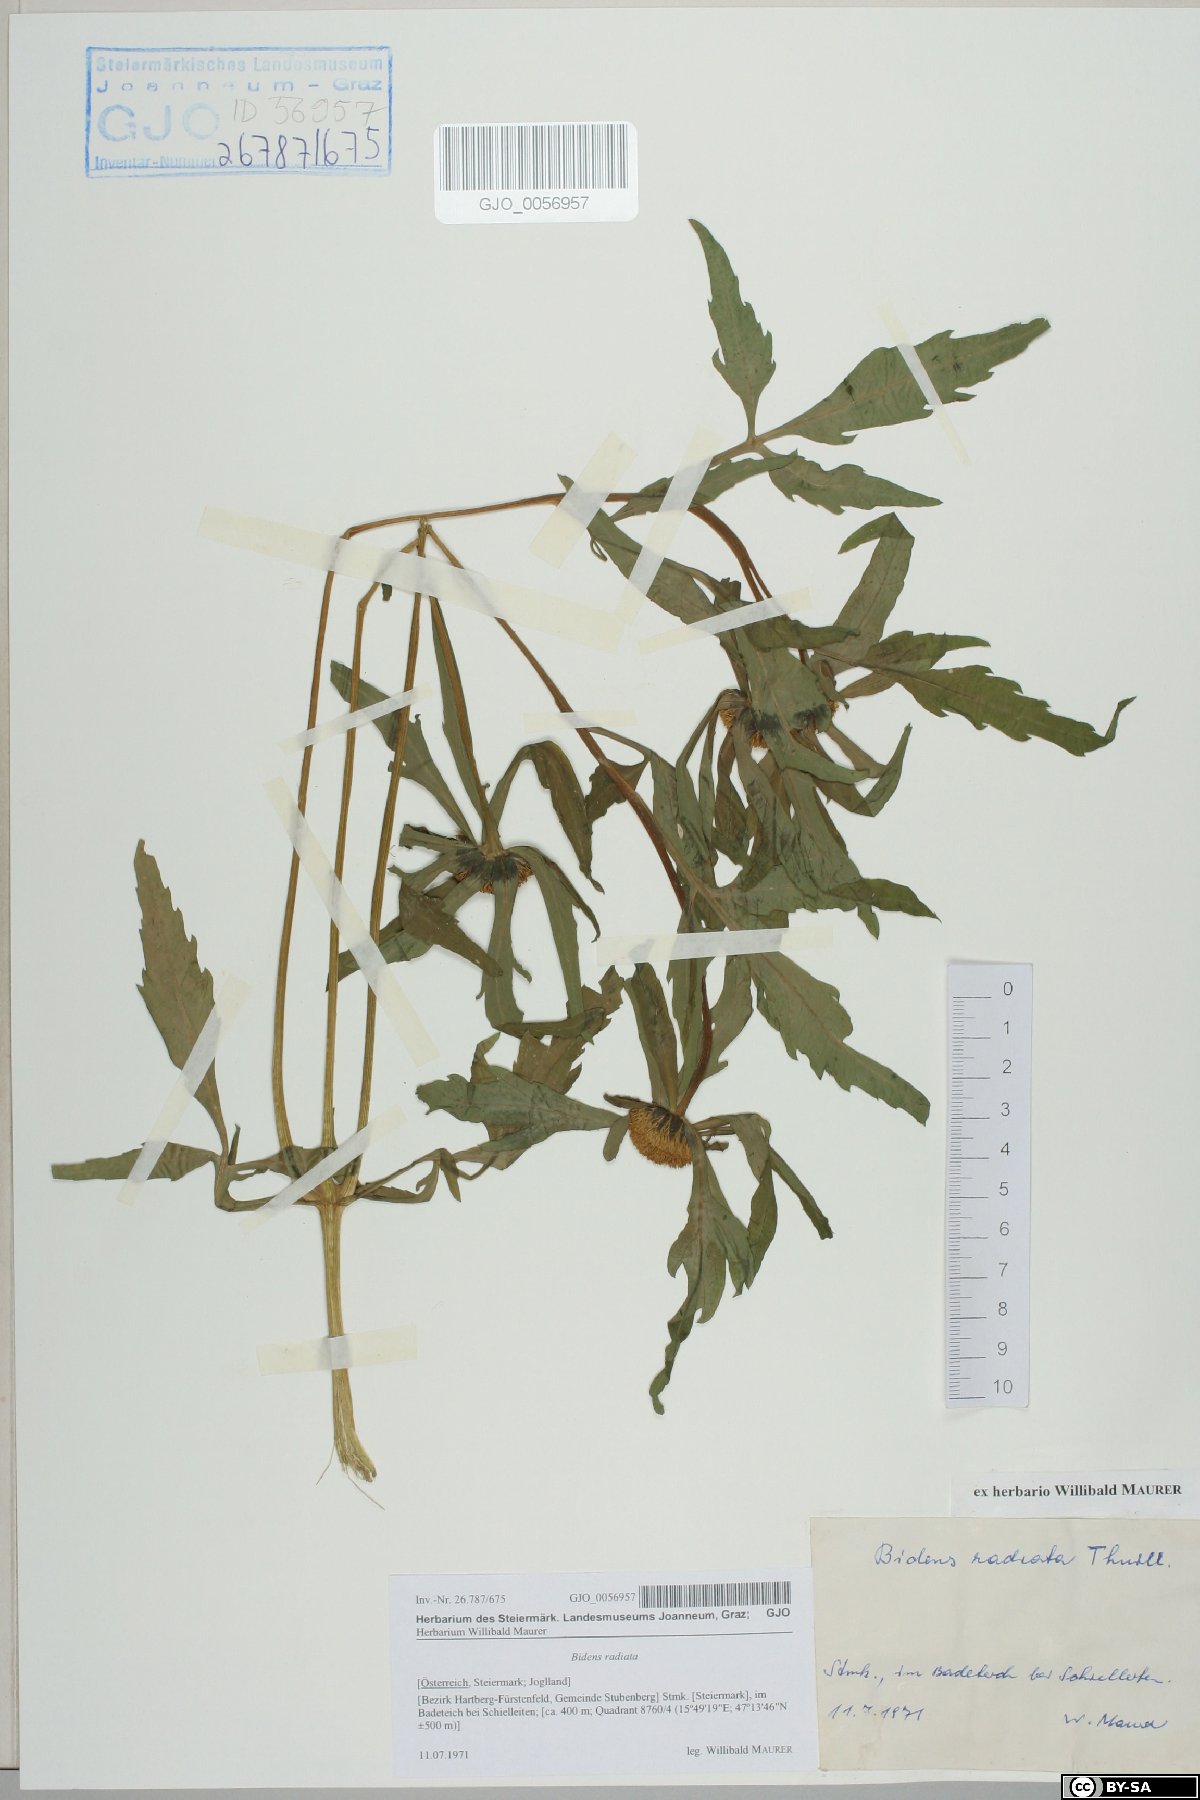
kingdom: Plantae
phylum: Tracheophyta
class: Magnoliopsida
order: Asterales
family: Asteraceae
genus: Bidens
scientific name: Bidens radiata
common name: Radiating bur-marigold
